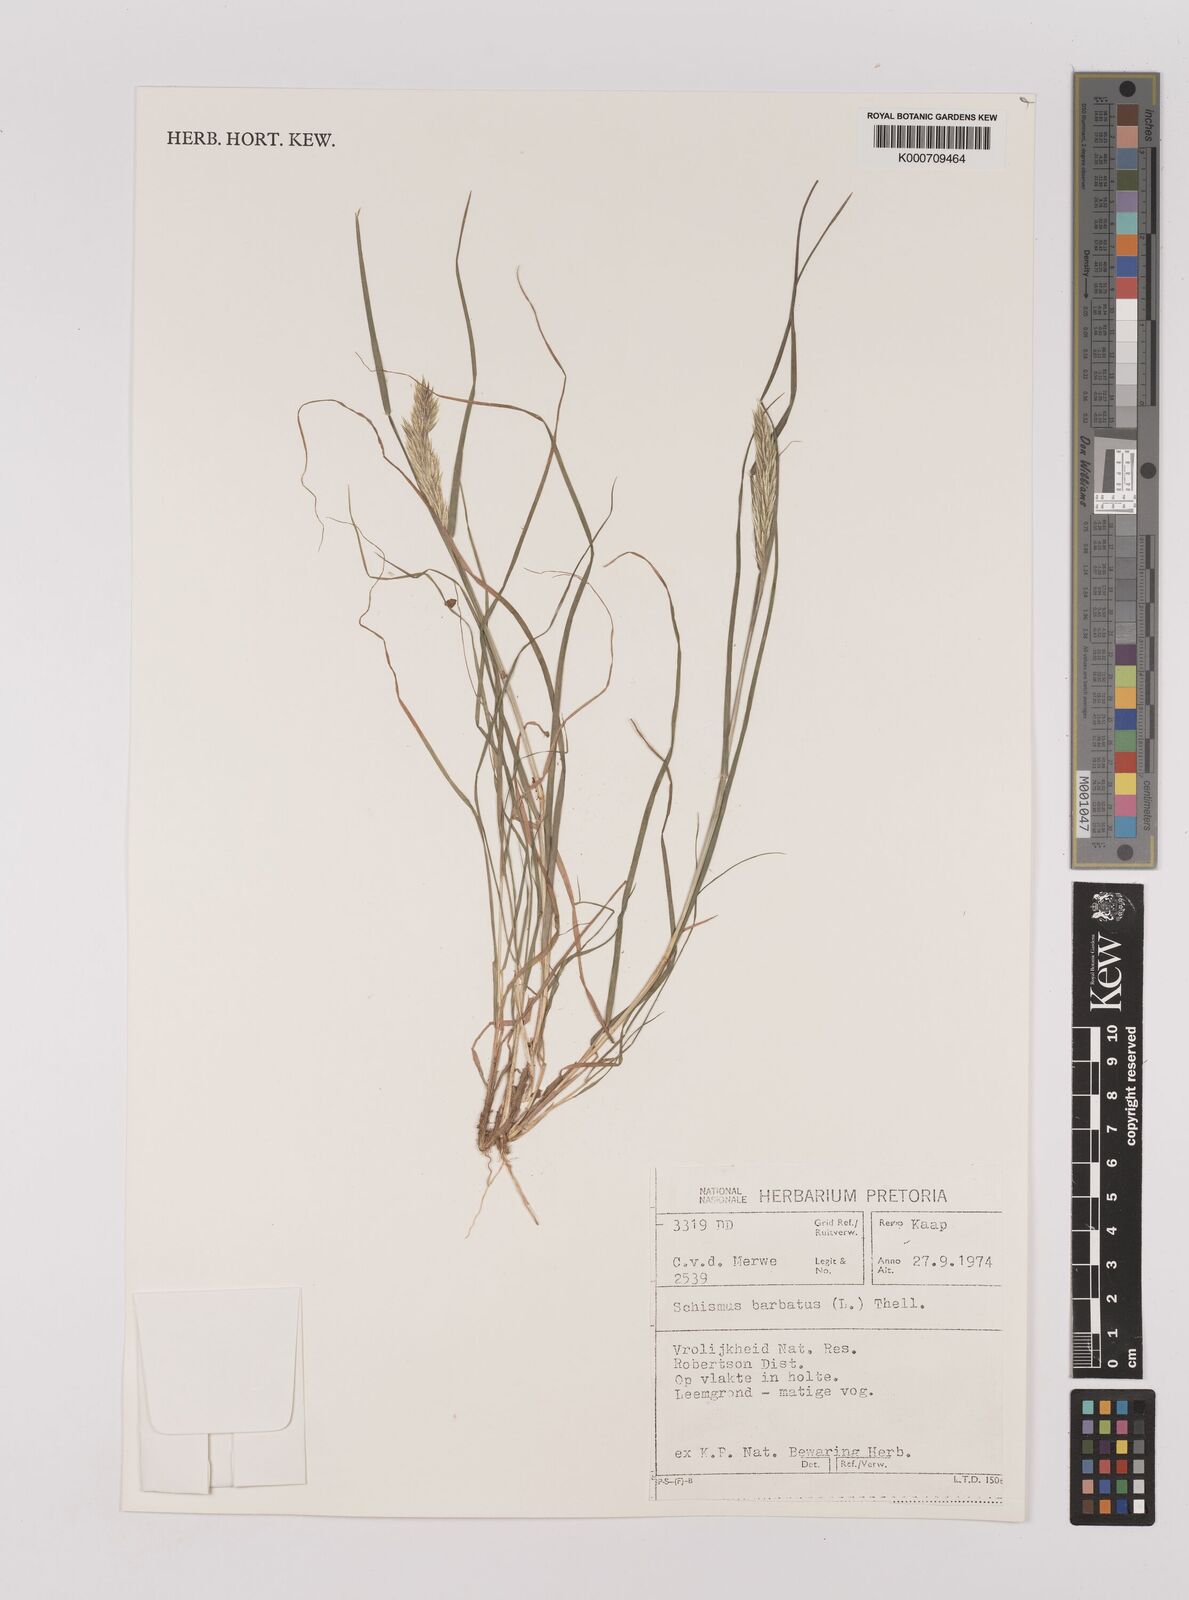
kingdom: Plantae
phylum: Tracheophyta
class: Liliopsida
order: Poales
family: Poaceae
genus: Schismus
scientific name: Schismus barbatus
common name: Kelch-grass
